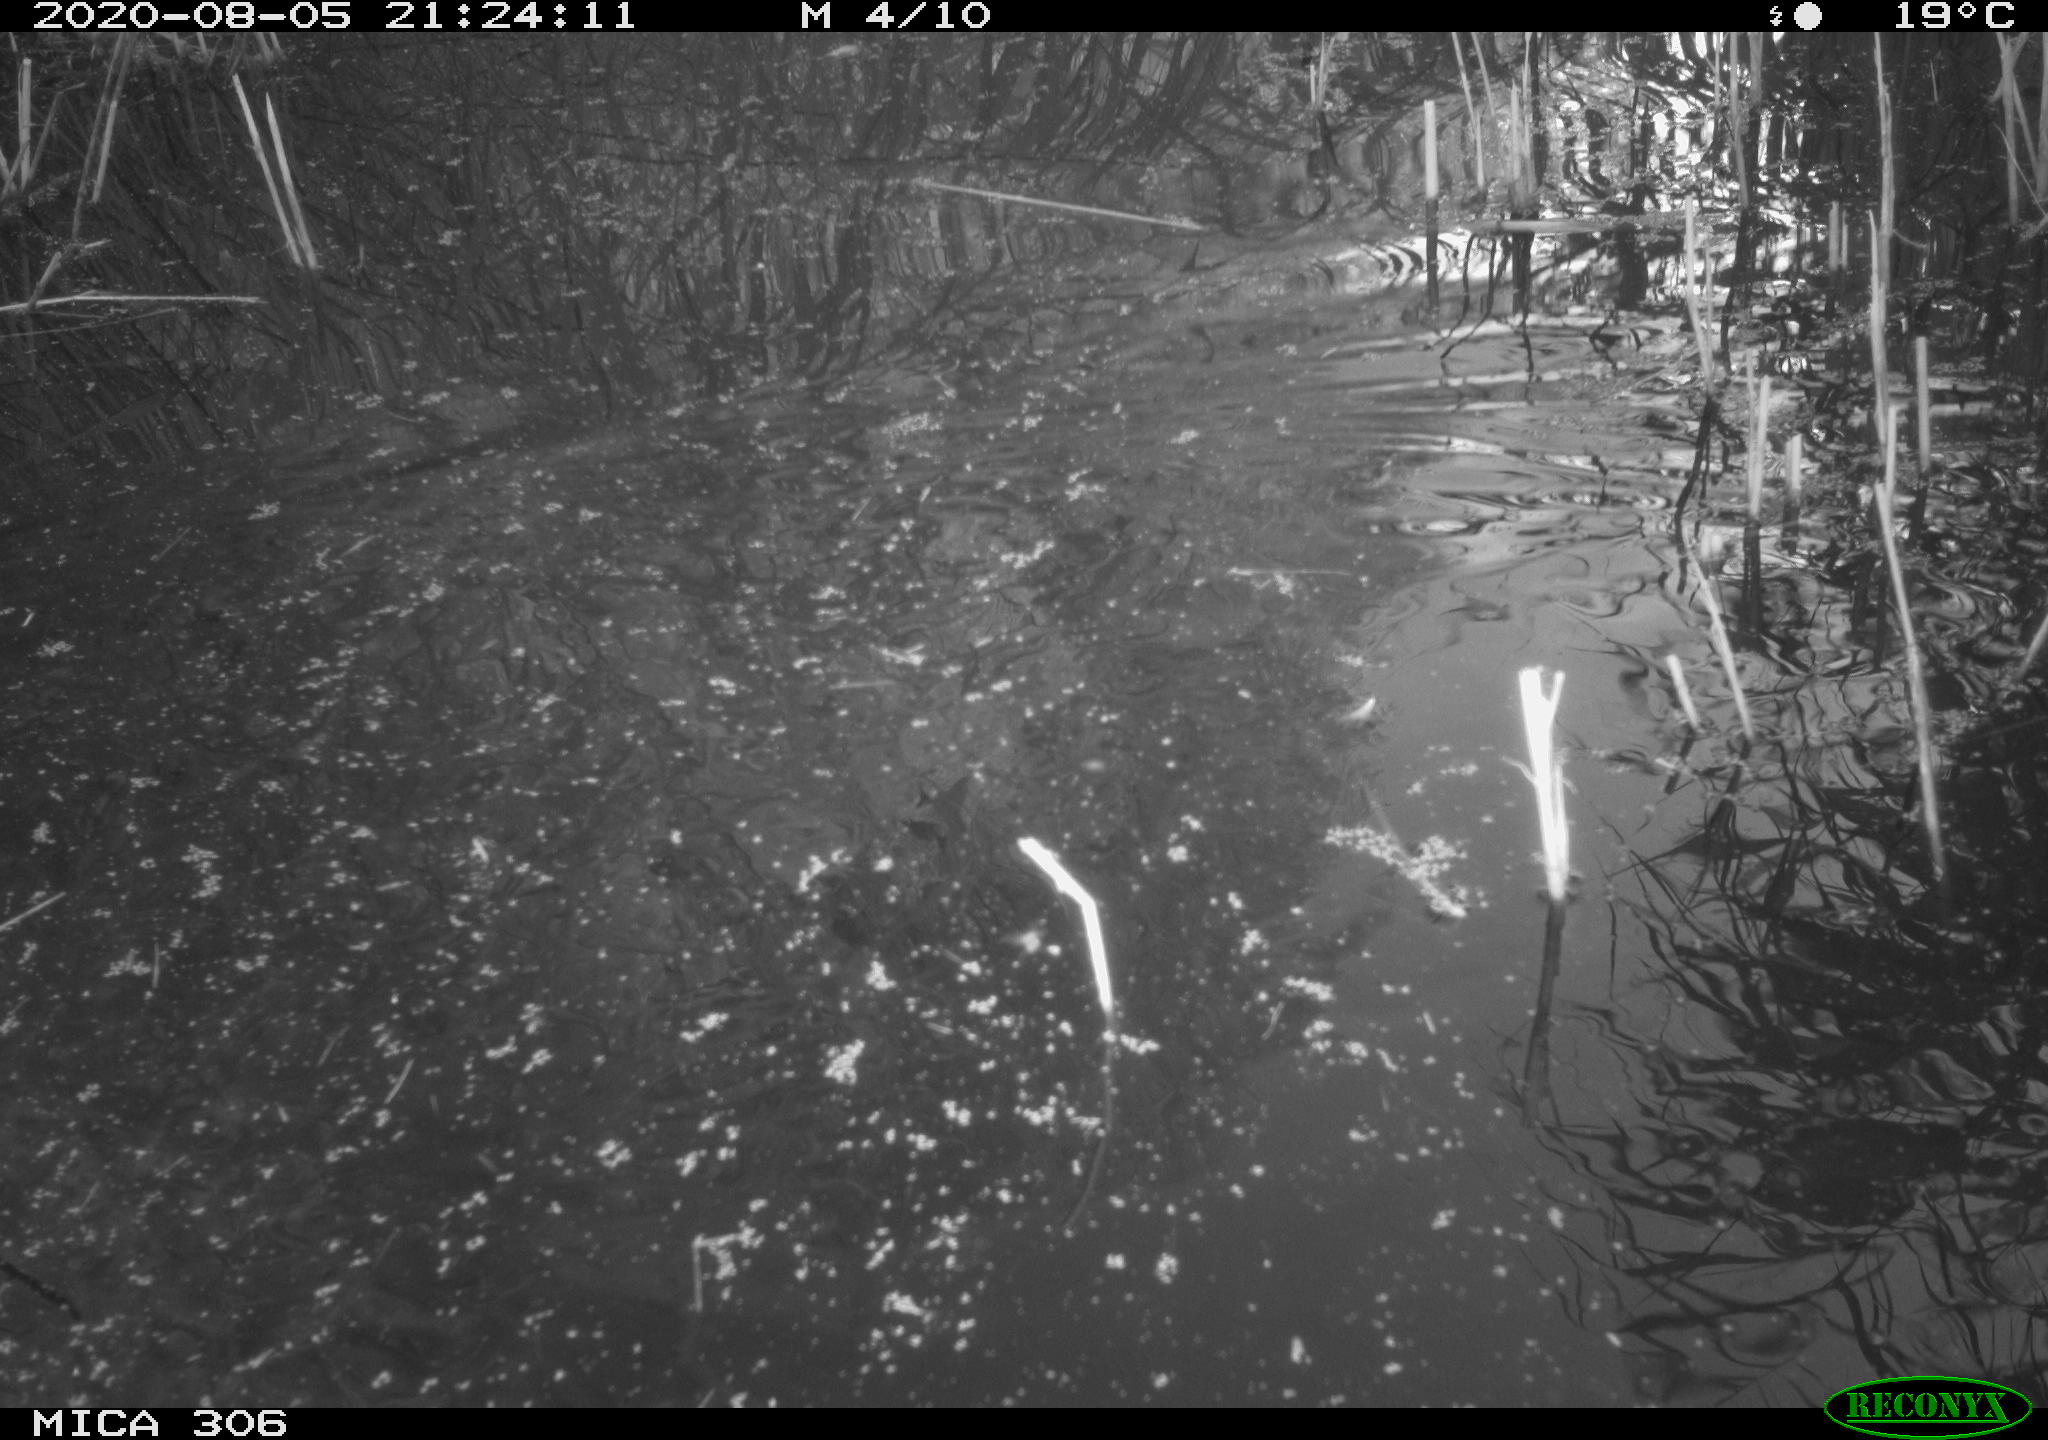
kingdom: Animalia
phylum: Chordata
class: Mammalia
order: Rodentia
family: Muridae
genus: Rattus
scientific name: Rattus norvegicus
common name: Brown rat
